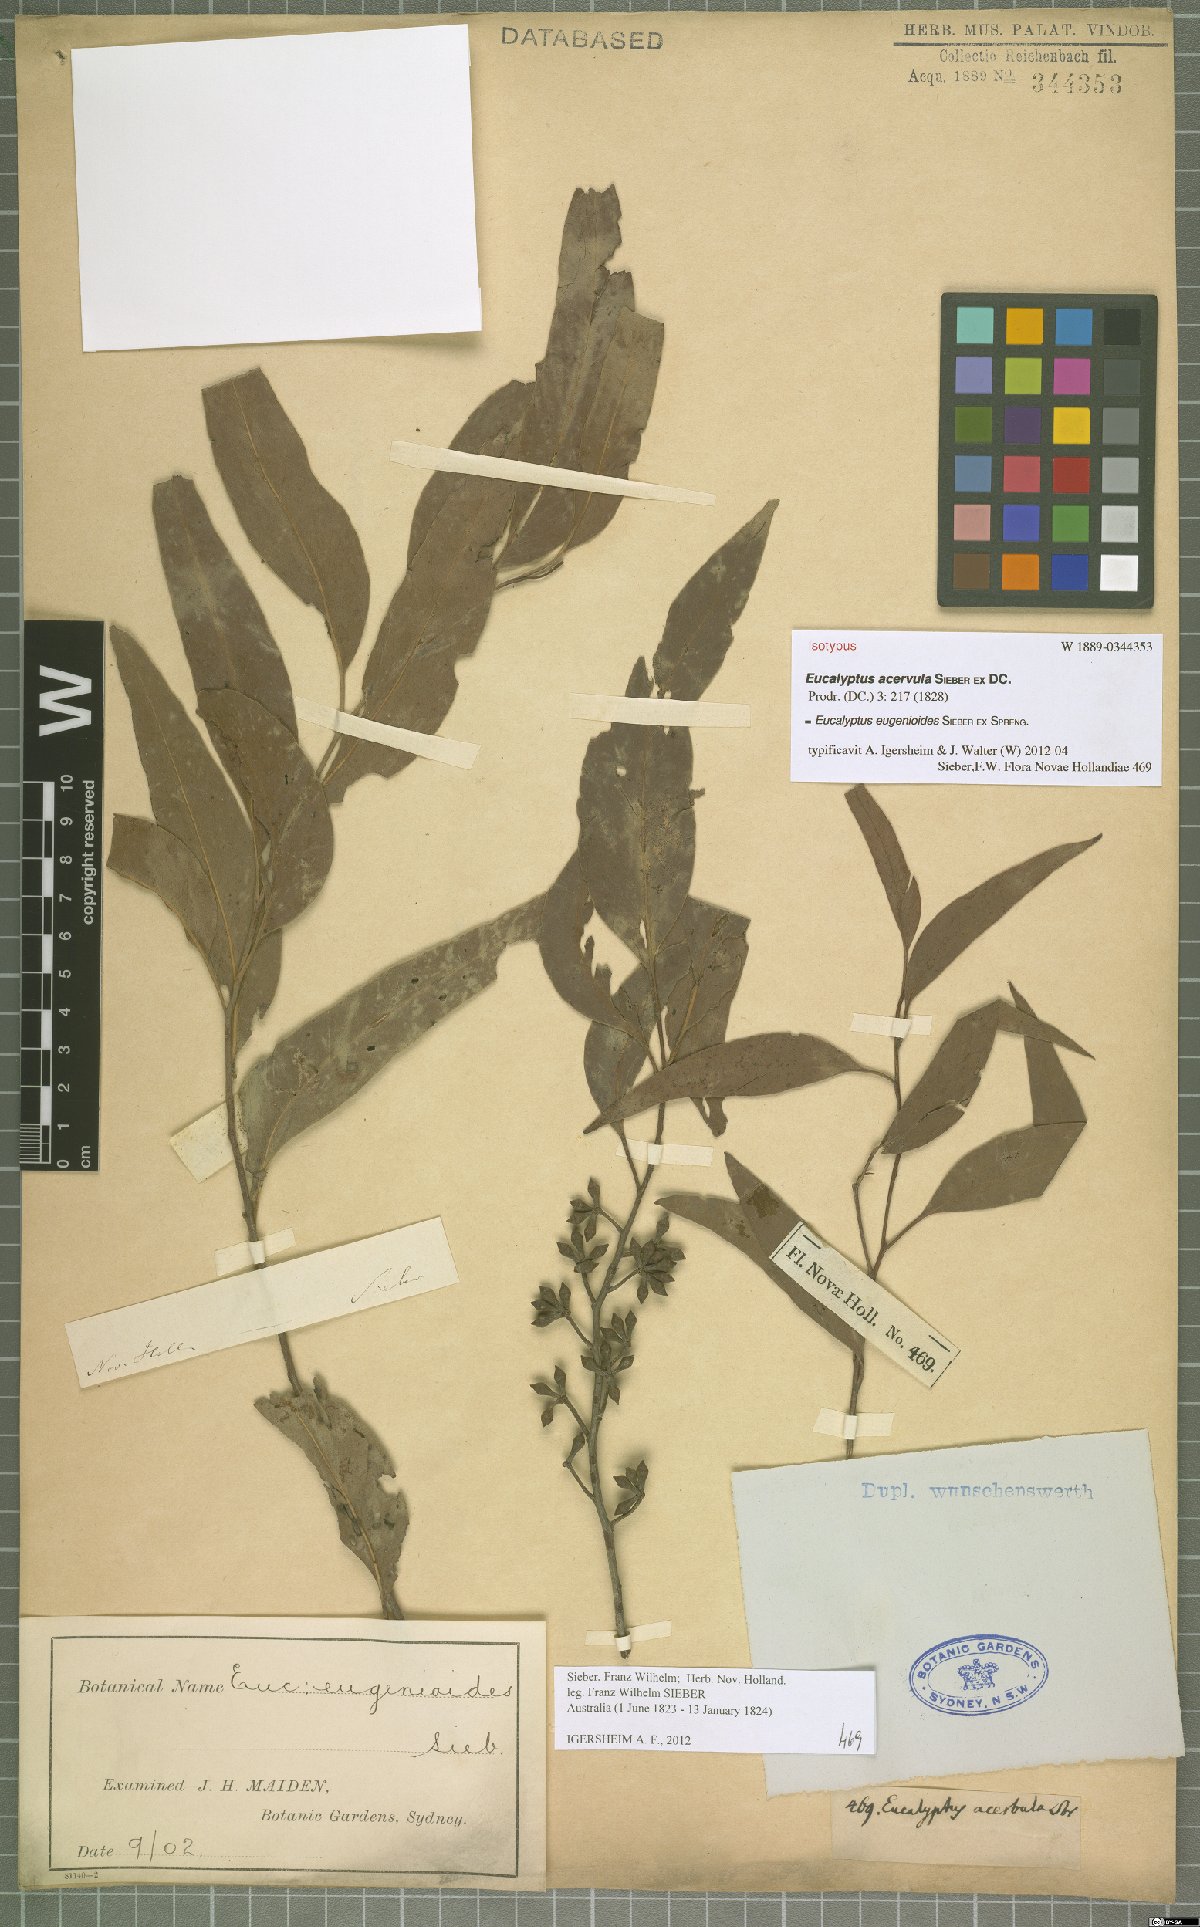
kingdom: Plantae
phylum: Tracheophyta
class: Magnoliopsida
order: Myrtales
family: Myrtaceae
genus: Eucalyptus
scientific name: Eucalyptus eugenioides
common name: Narrow-leaved-stringybark
